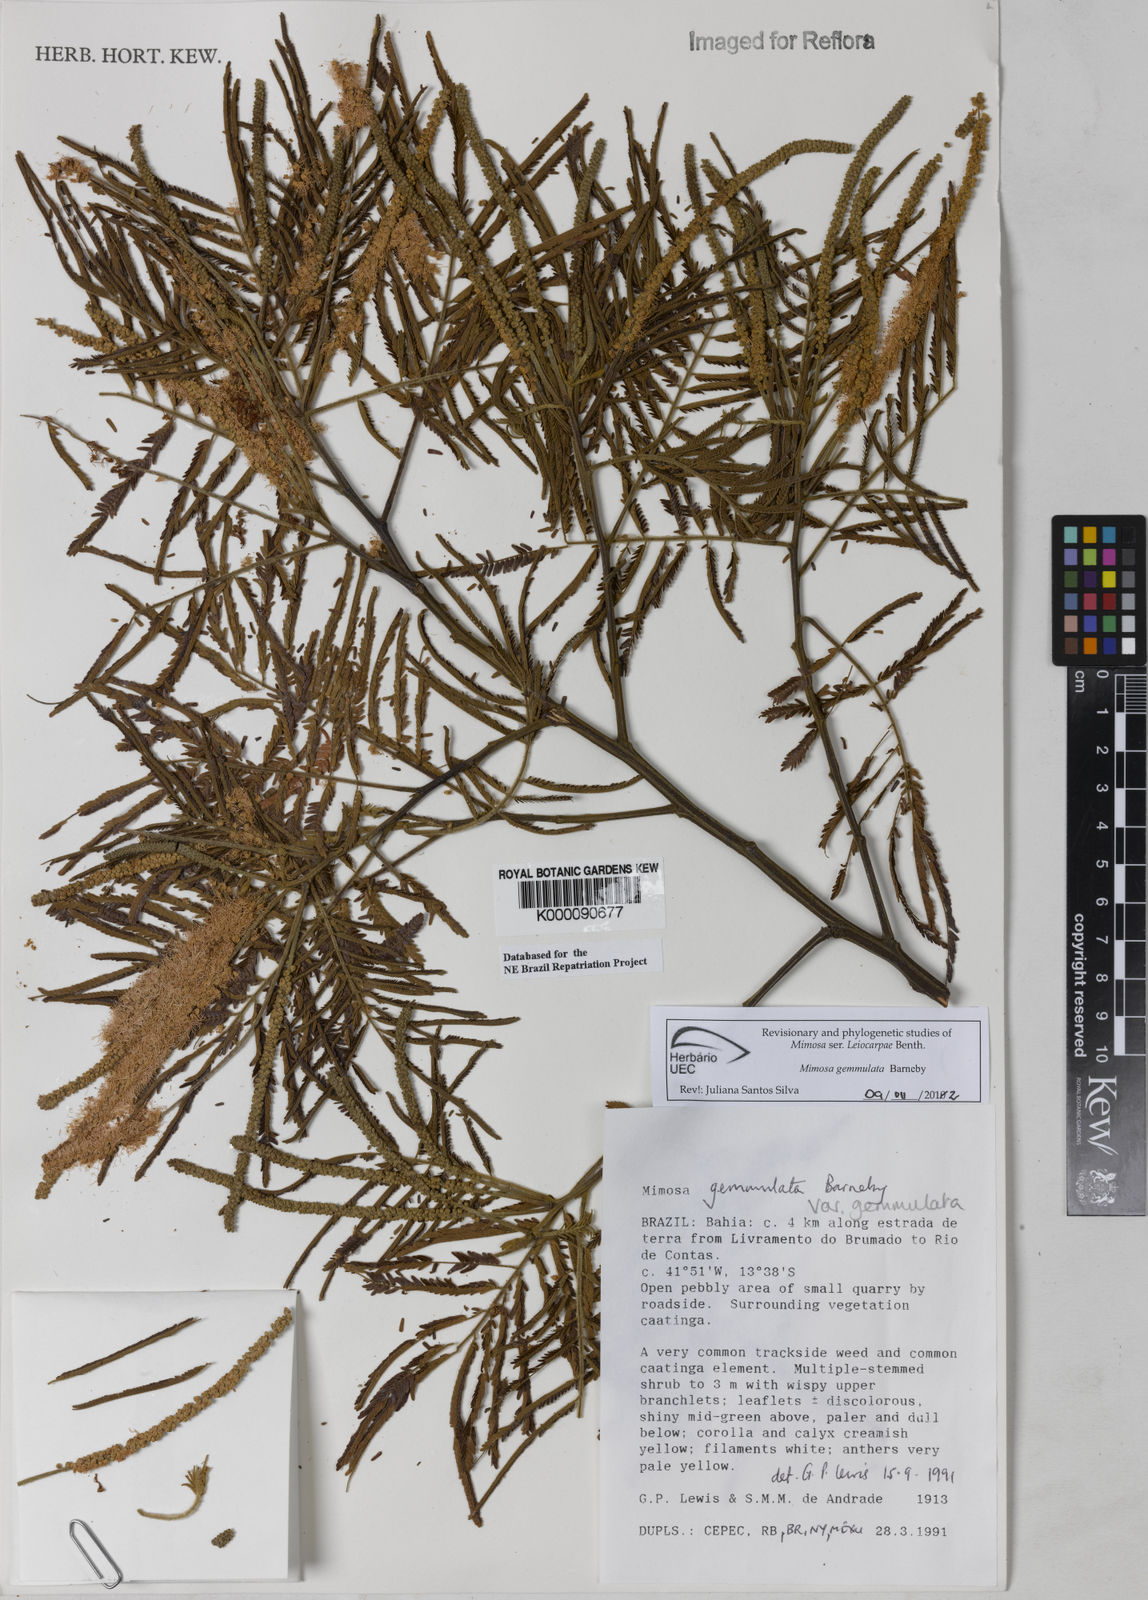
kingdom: Plantae
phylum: Tracheophyta
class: Magnoliopsida
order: Fabales
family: Fabaceae
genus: Mimosa
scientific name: Mimosa gemmulata
